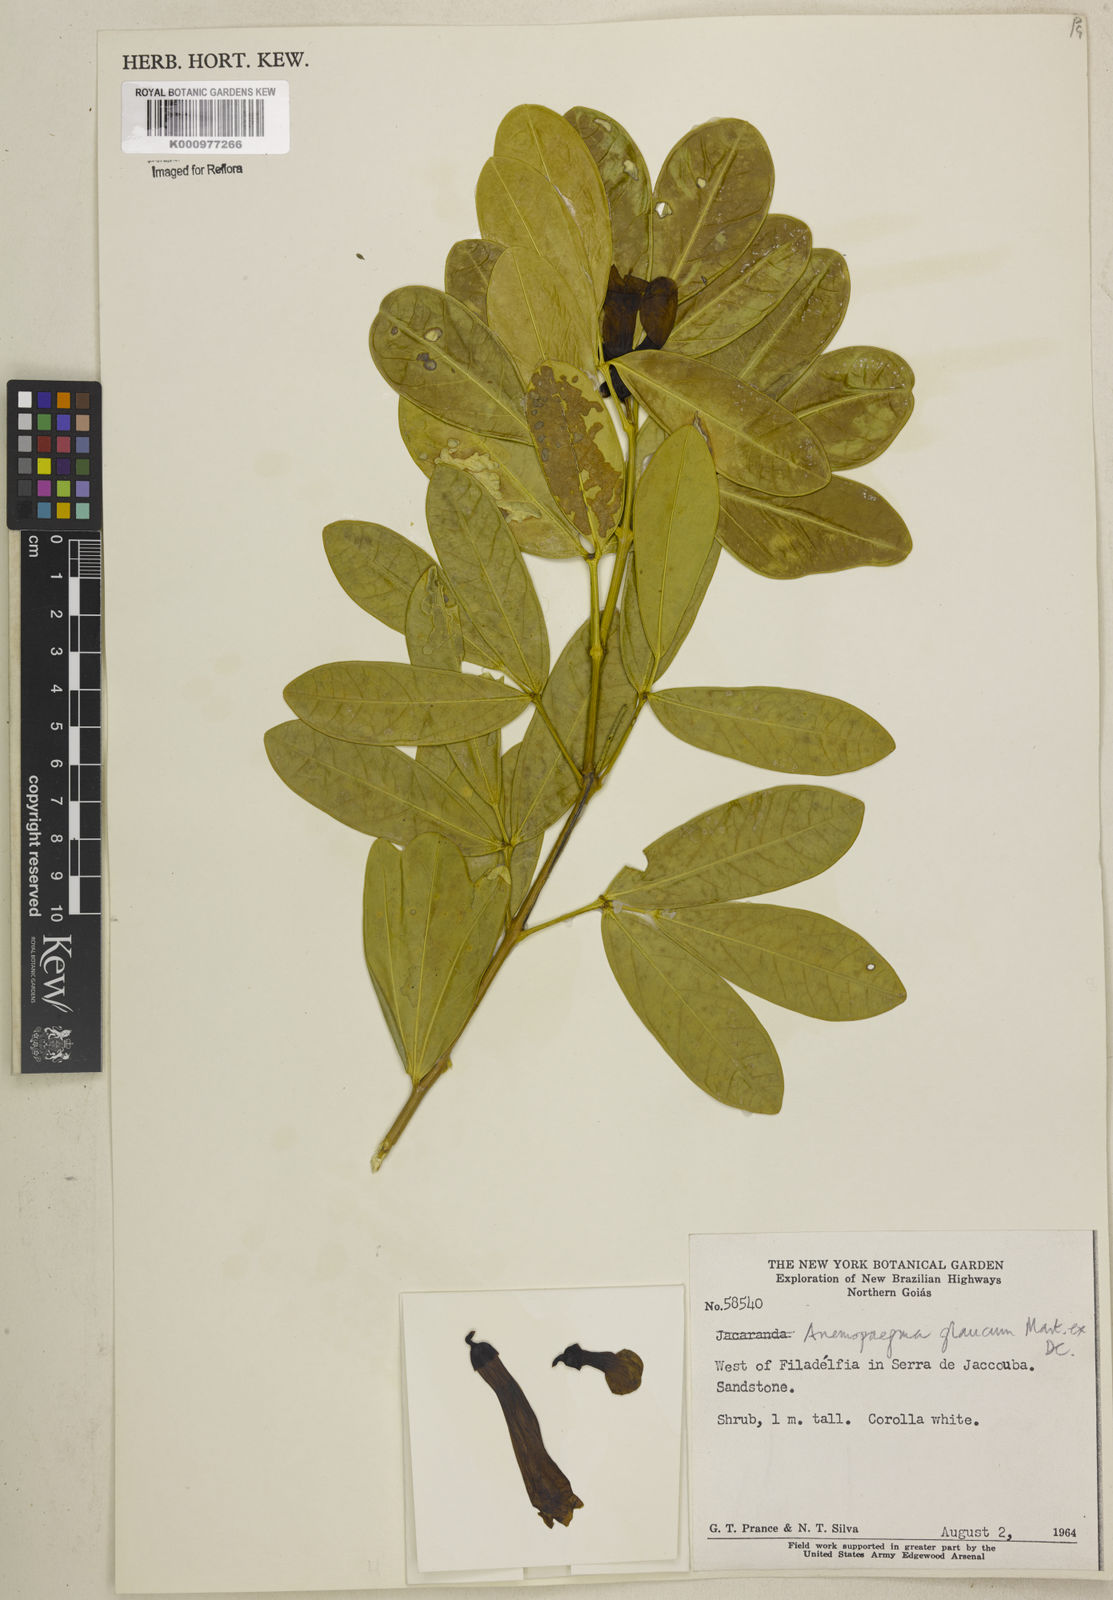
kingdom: Plantae
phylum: Tracheophyta
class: Magnoliopsida
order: Lamiales
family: Bignoniaceae
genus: Anemopaegma
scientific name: Anemopaegma glaucum
